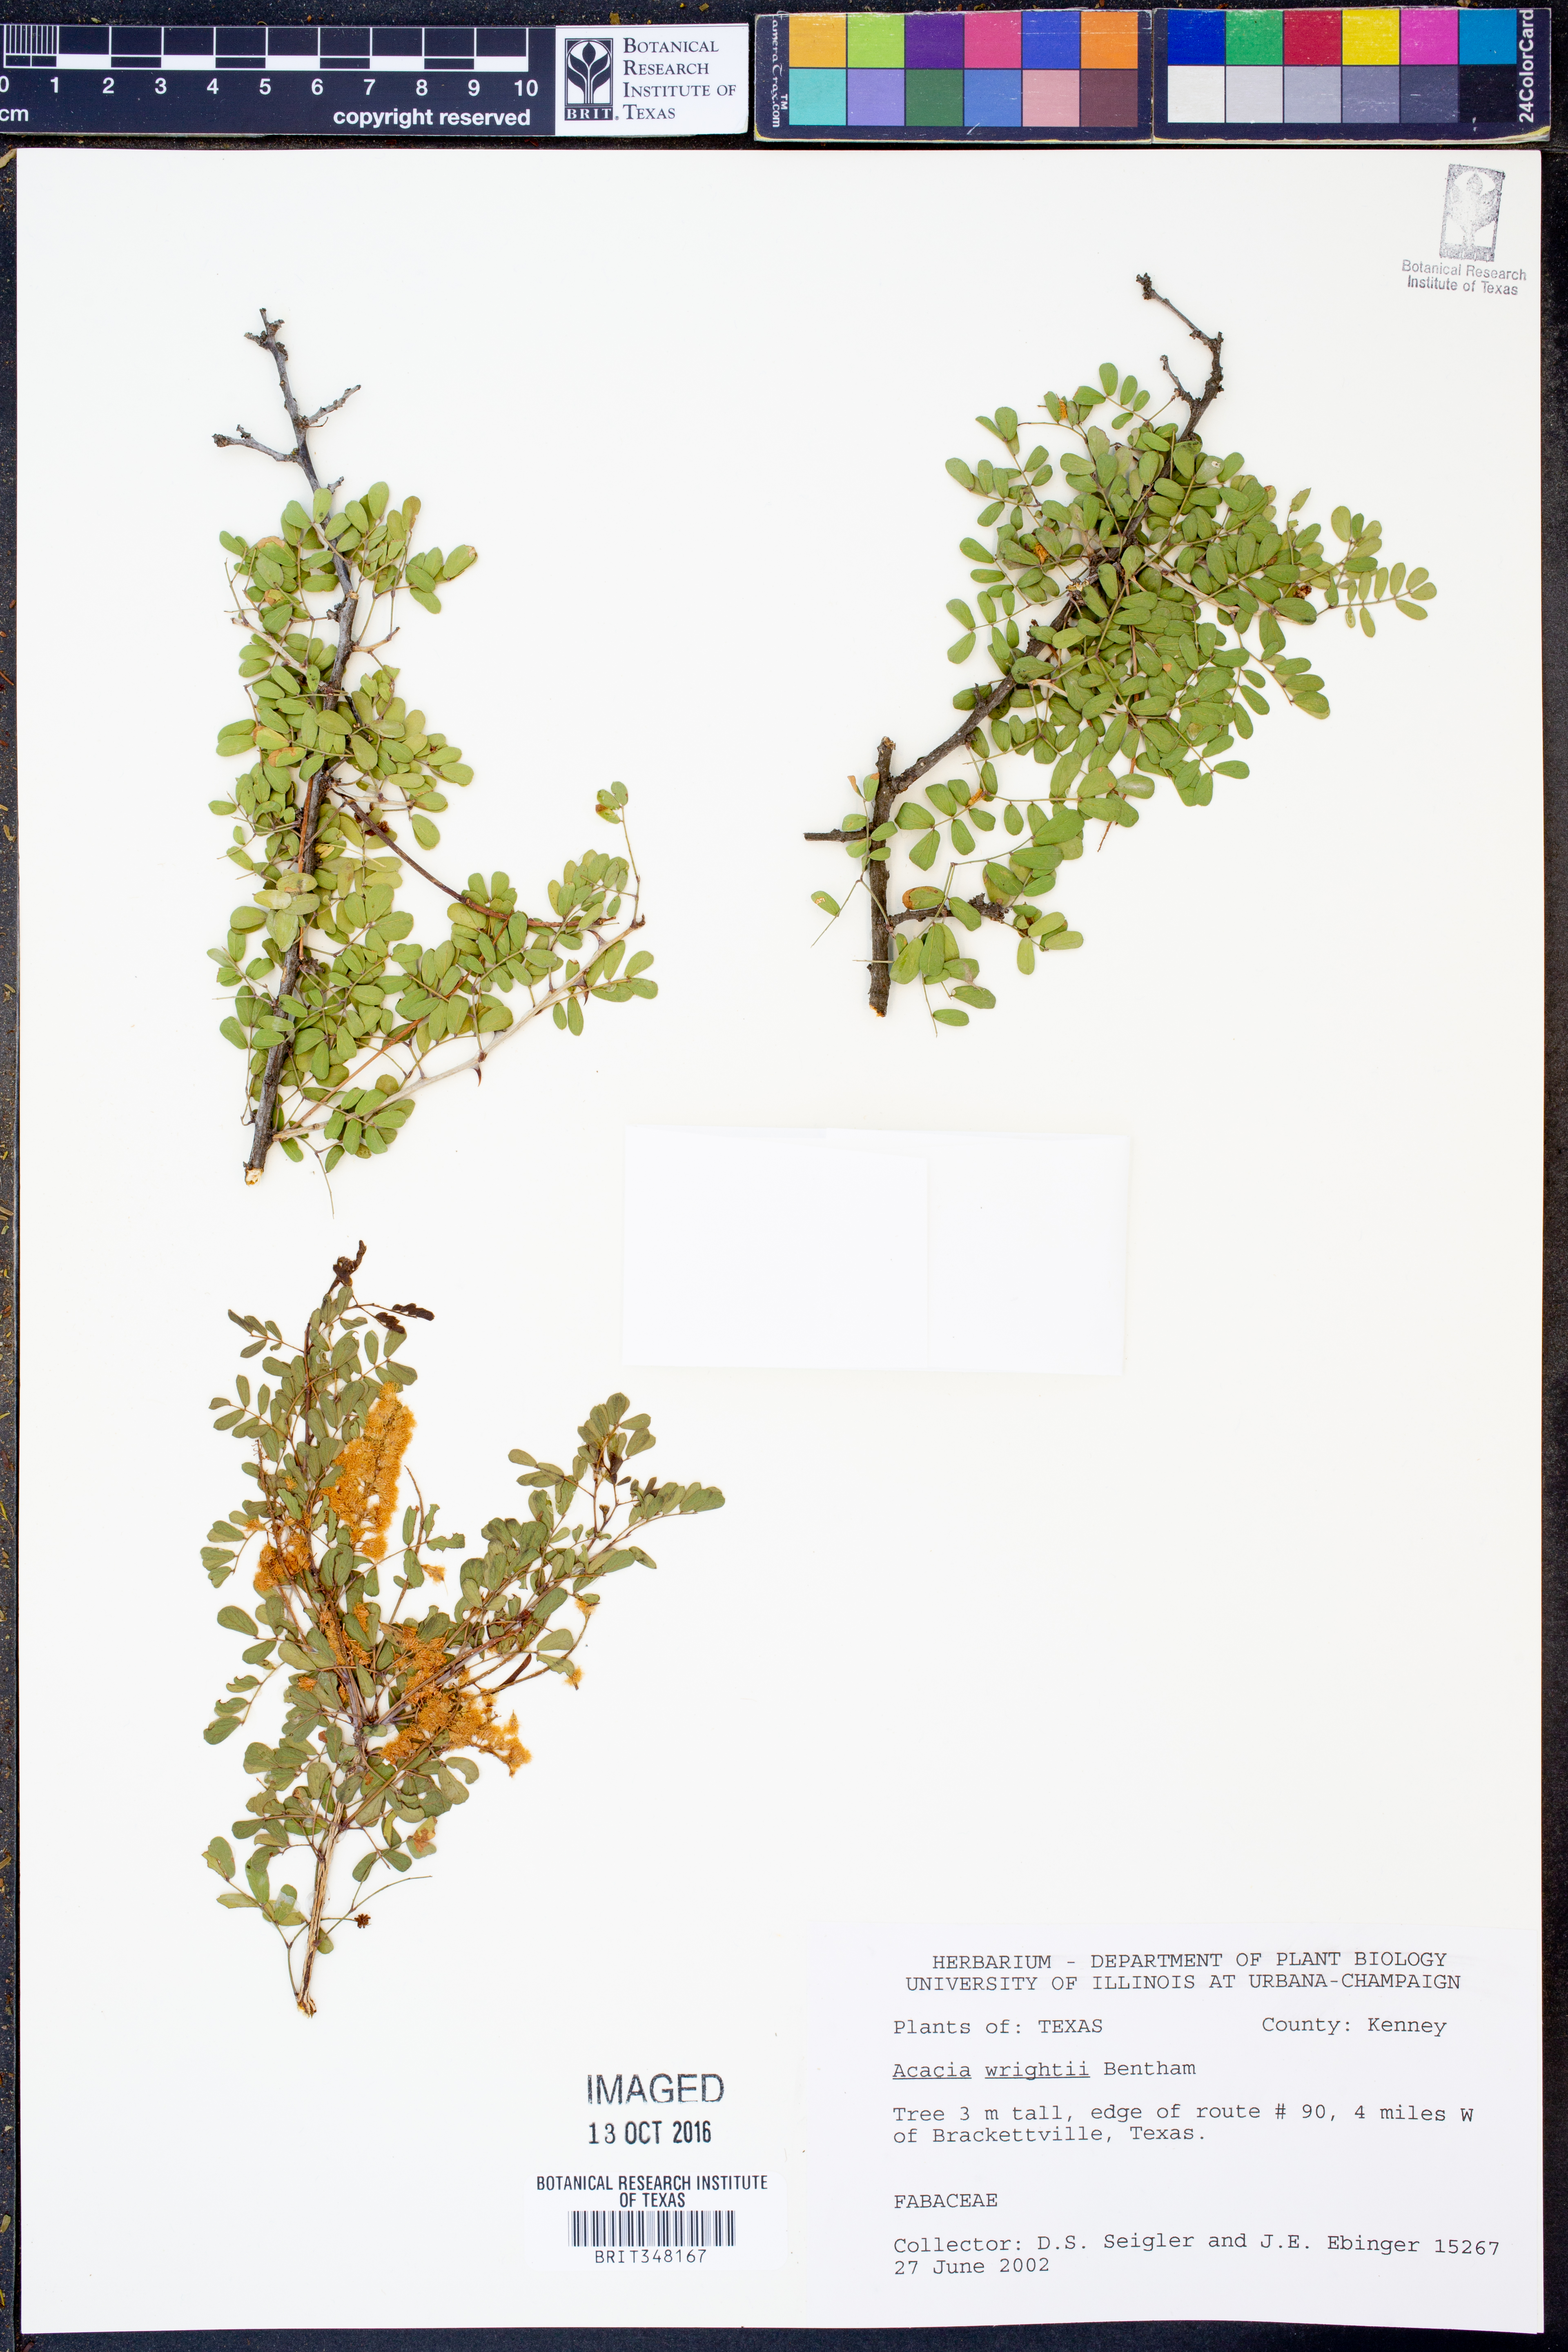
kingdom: Plantae
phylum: Tracheophyta
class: Magnoliopsida
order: Fabales
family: Fabaceae
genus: Senegalia
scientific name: Senegalia wrightii
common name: Texas cat's-claw
